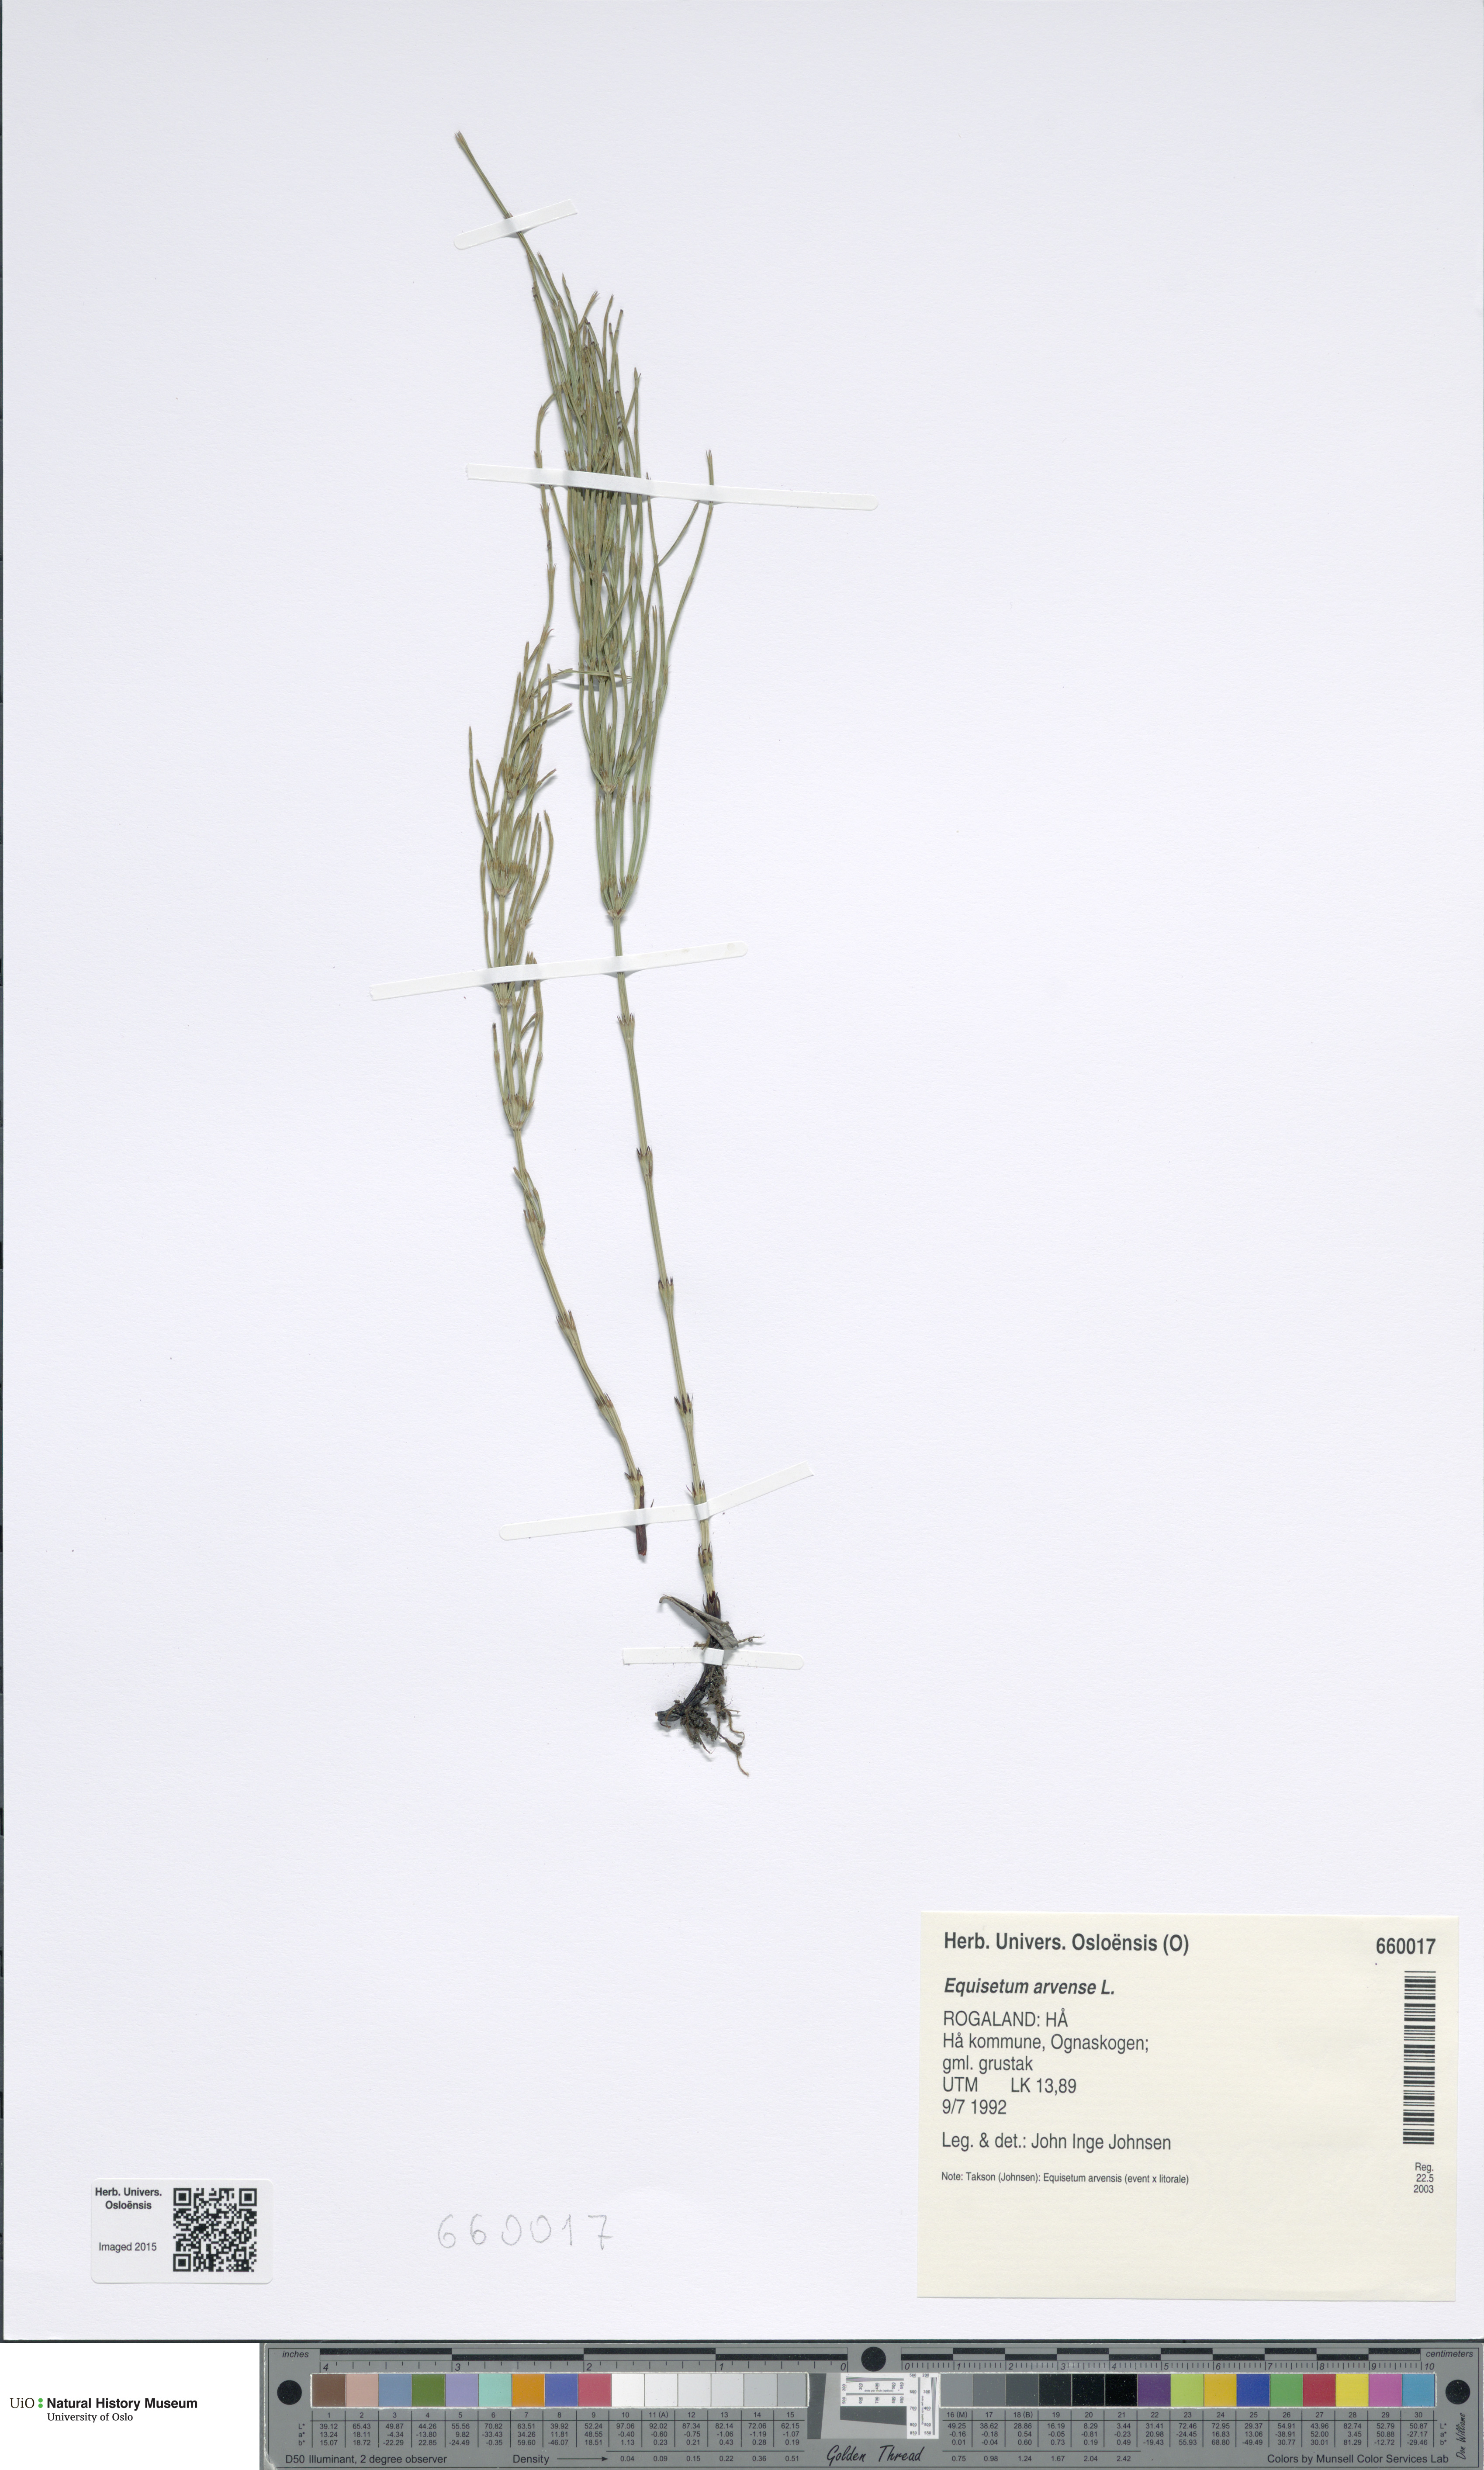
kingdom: Plantae
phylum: Tracheophyta
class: Polypodiopsida
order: Equisetales
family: Equisetaceae
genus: Equisetum
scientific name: Equisetum arvense
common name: Field horsetail
